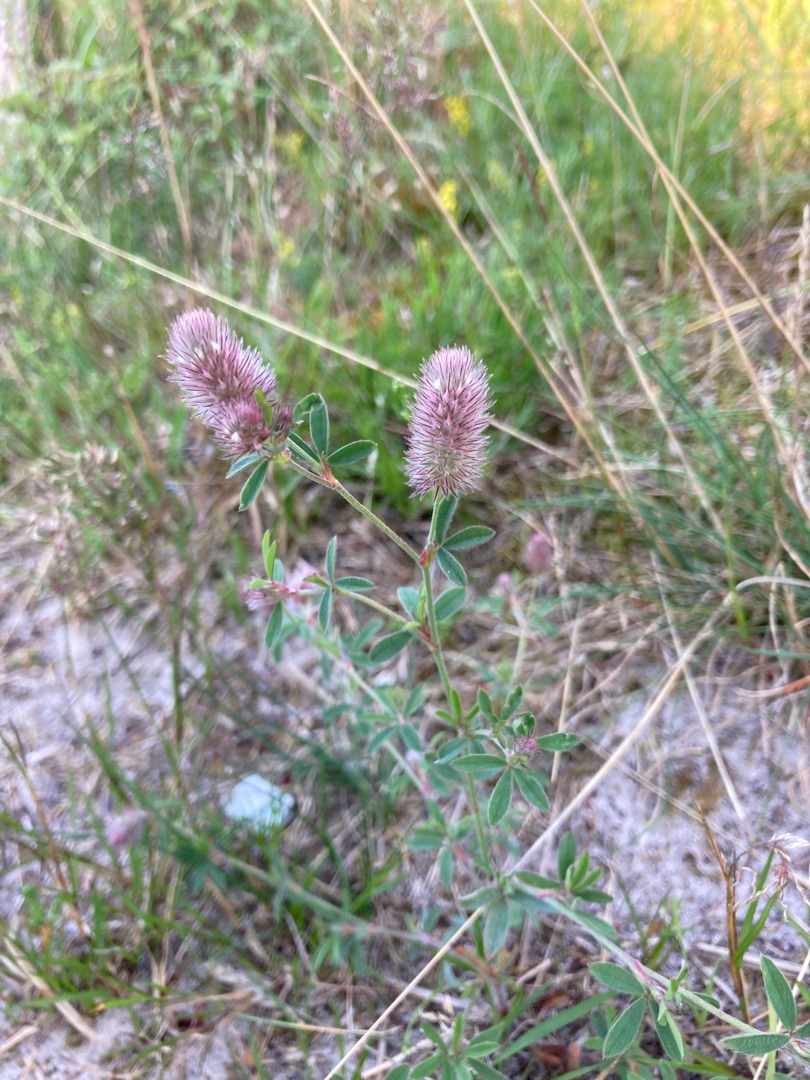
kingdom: Plantae
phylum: Tracheophyta
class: Magnoliopsida
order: Fabales
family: Fabaceae
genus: Trifolium
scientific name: Trifolium arvense
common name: Hare-kløver
